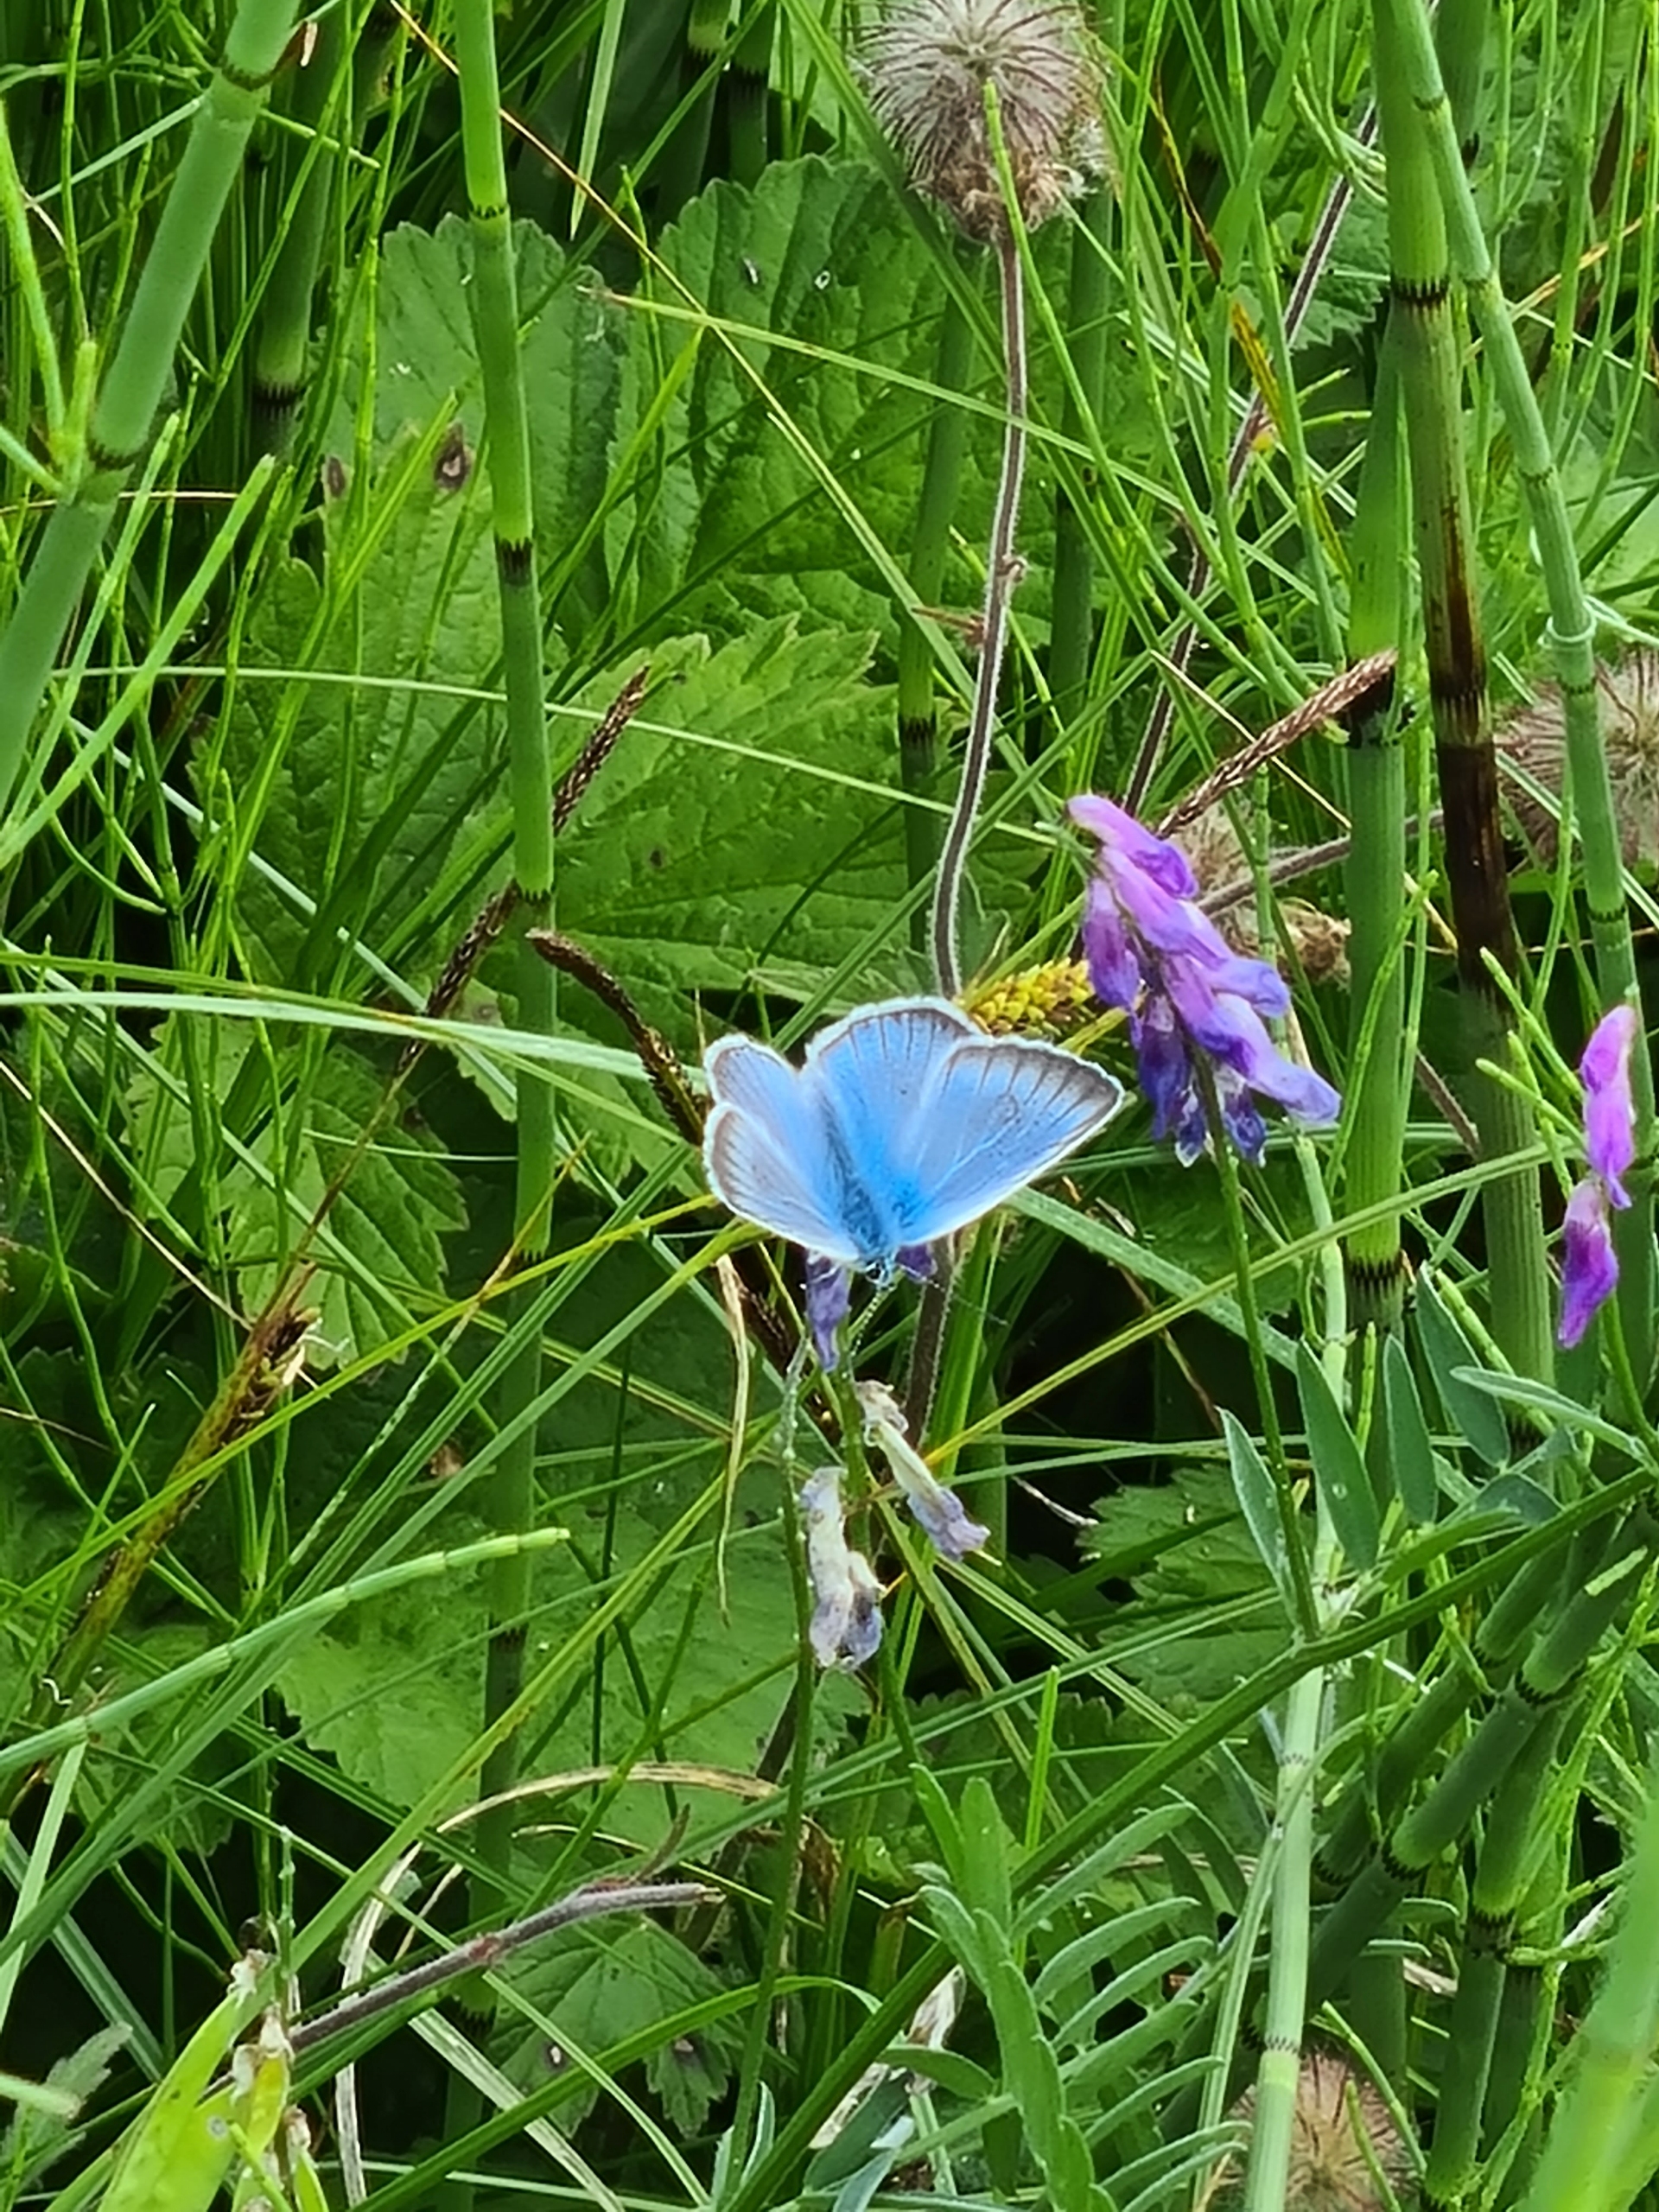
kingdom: Animalia
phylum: Arthropoda
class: Insecta
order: Lepidoptera
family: Lycaenidae
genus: Plebejus
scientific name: Plebejus amanda
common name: Isblåfugl
